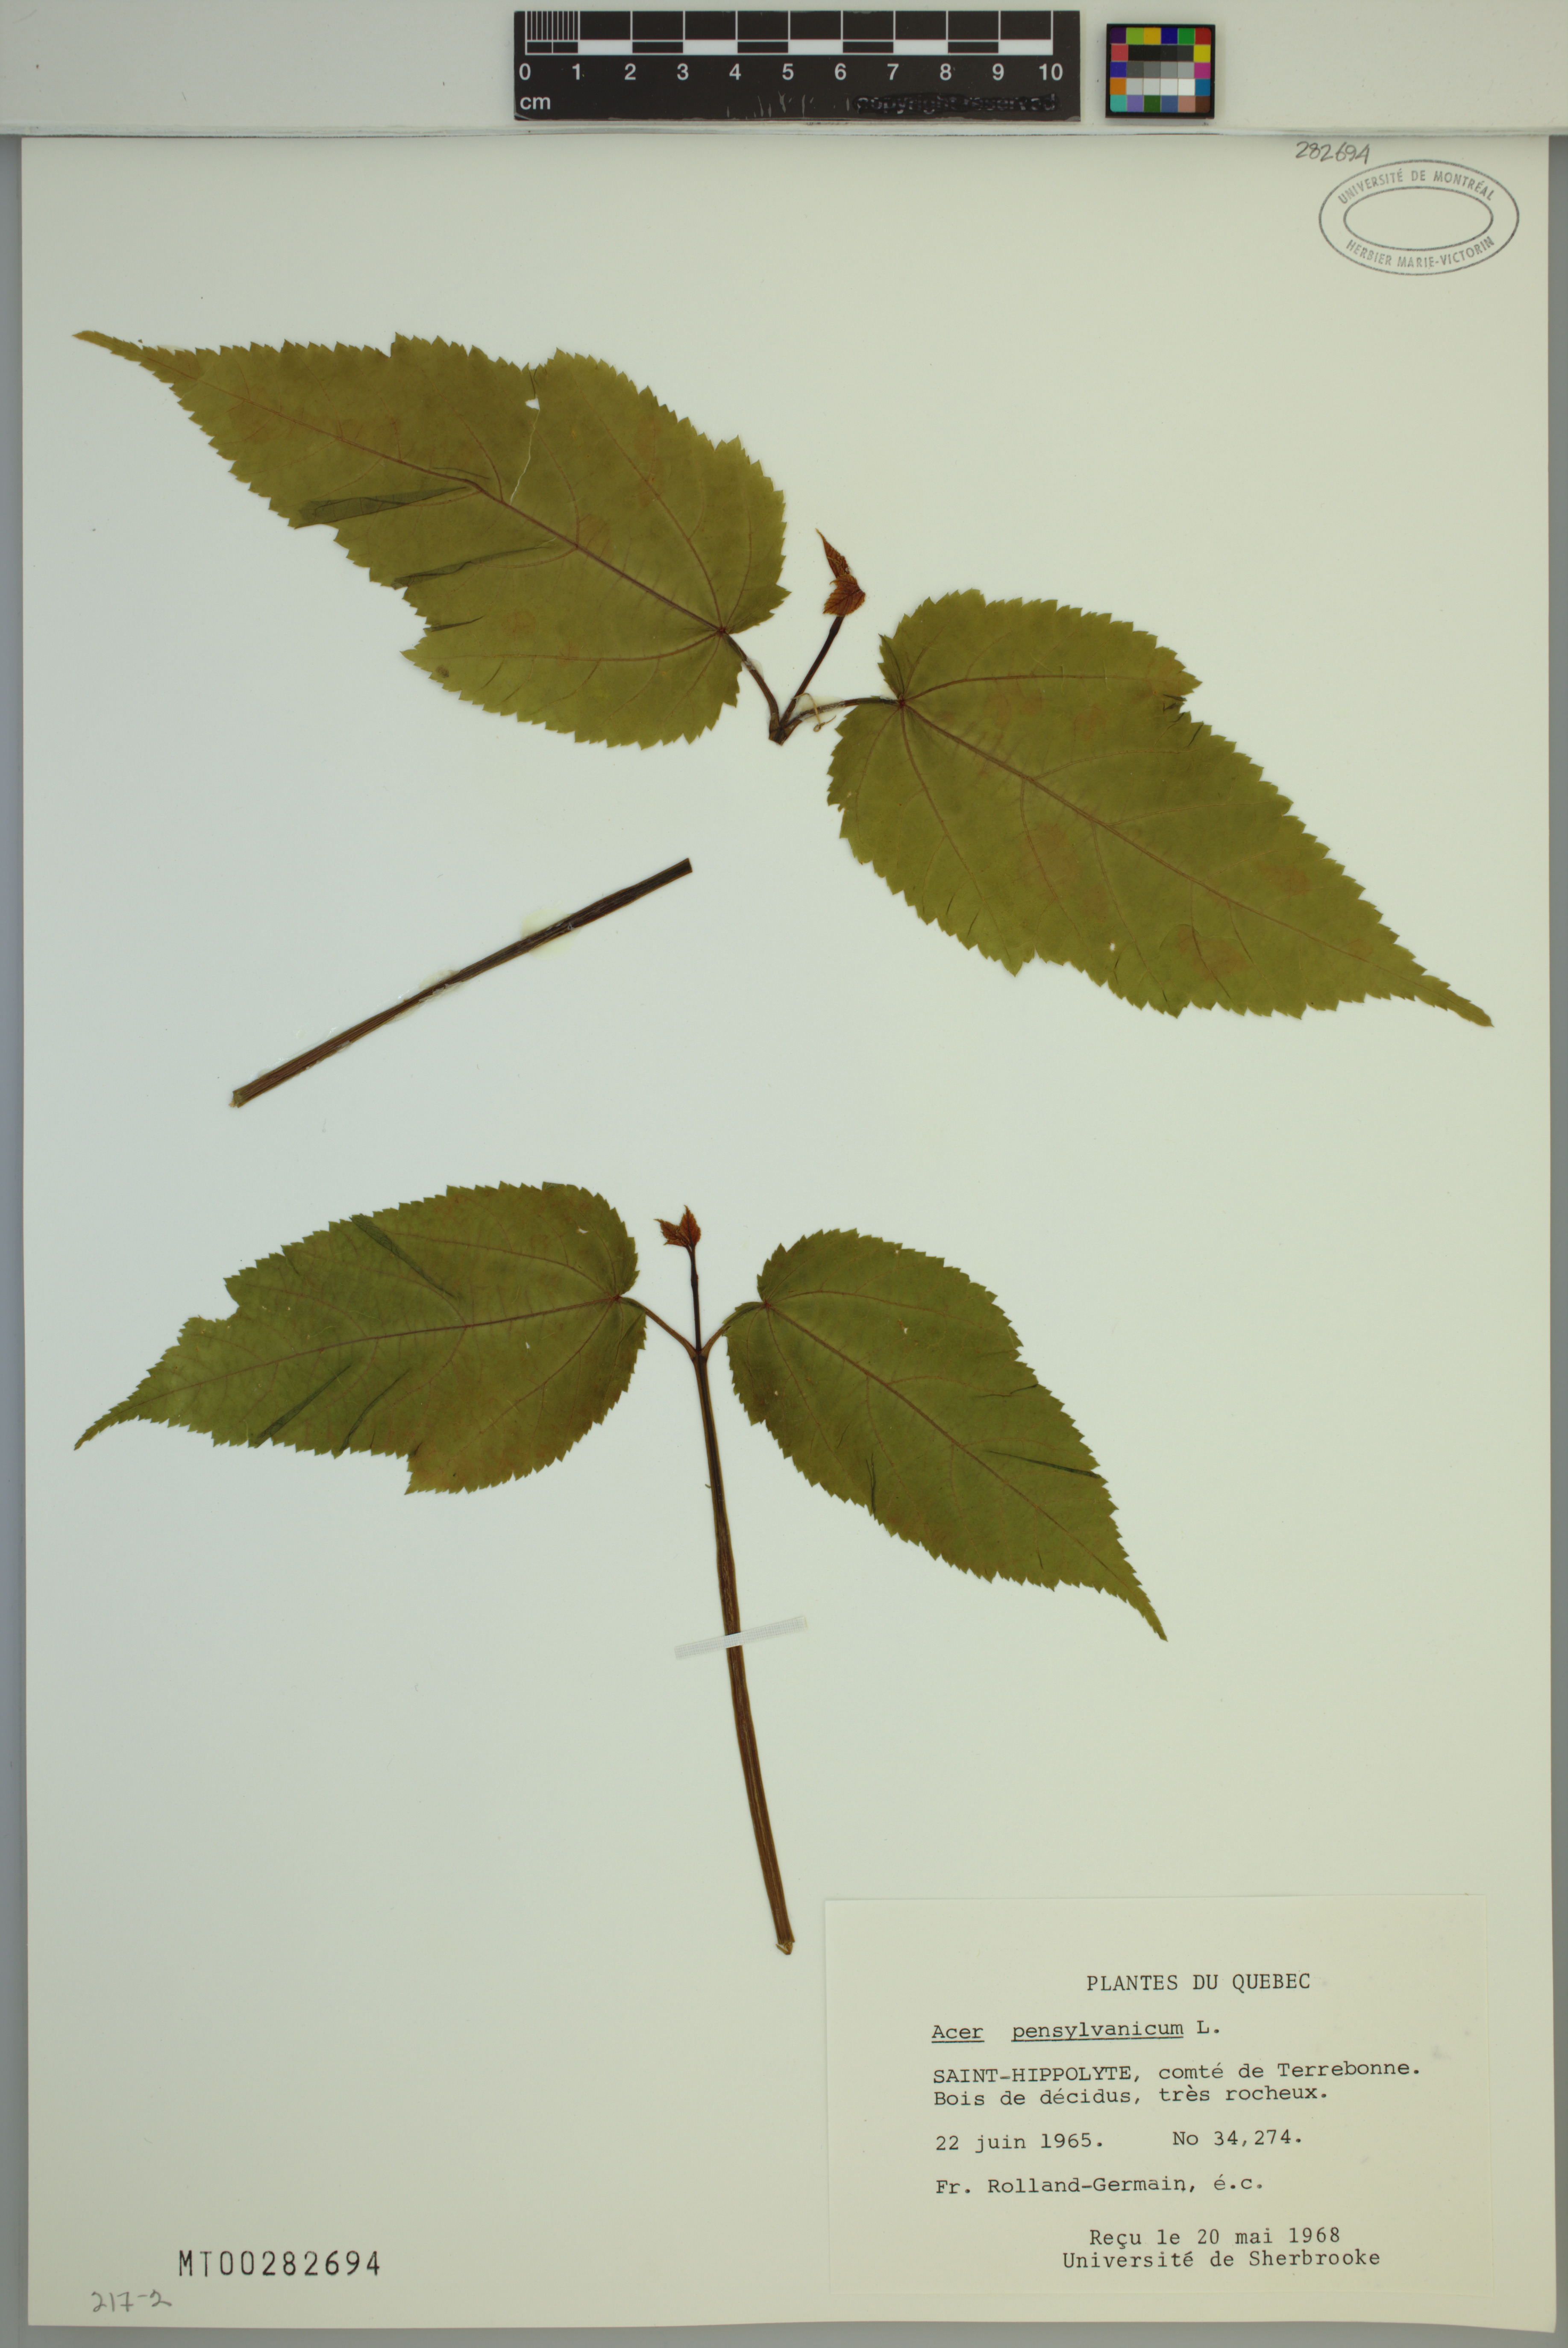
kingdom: Plantae
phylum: Tracheophyta
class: Magnoliopsida
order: Sapindales
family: Sapindaceae
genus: Acer
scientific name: Acer pensylvanicum
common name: Moosewood
